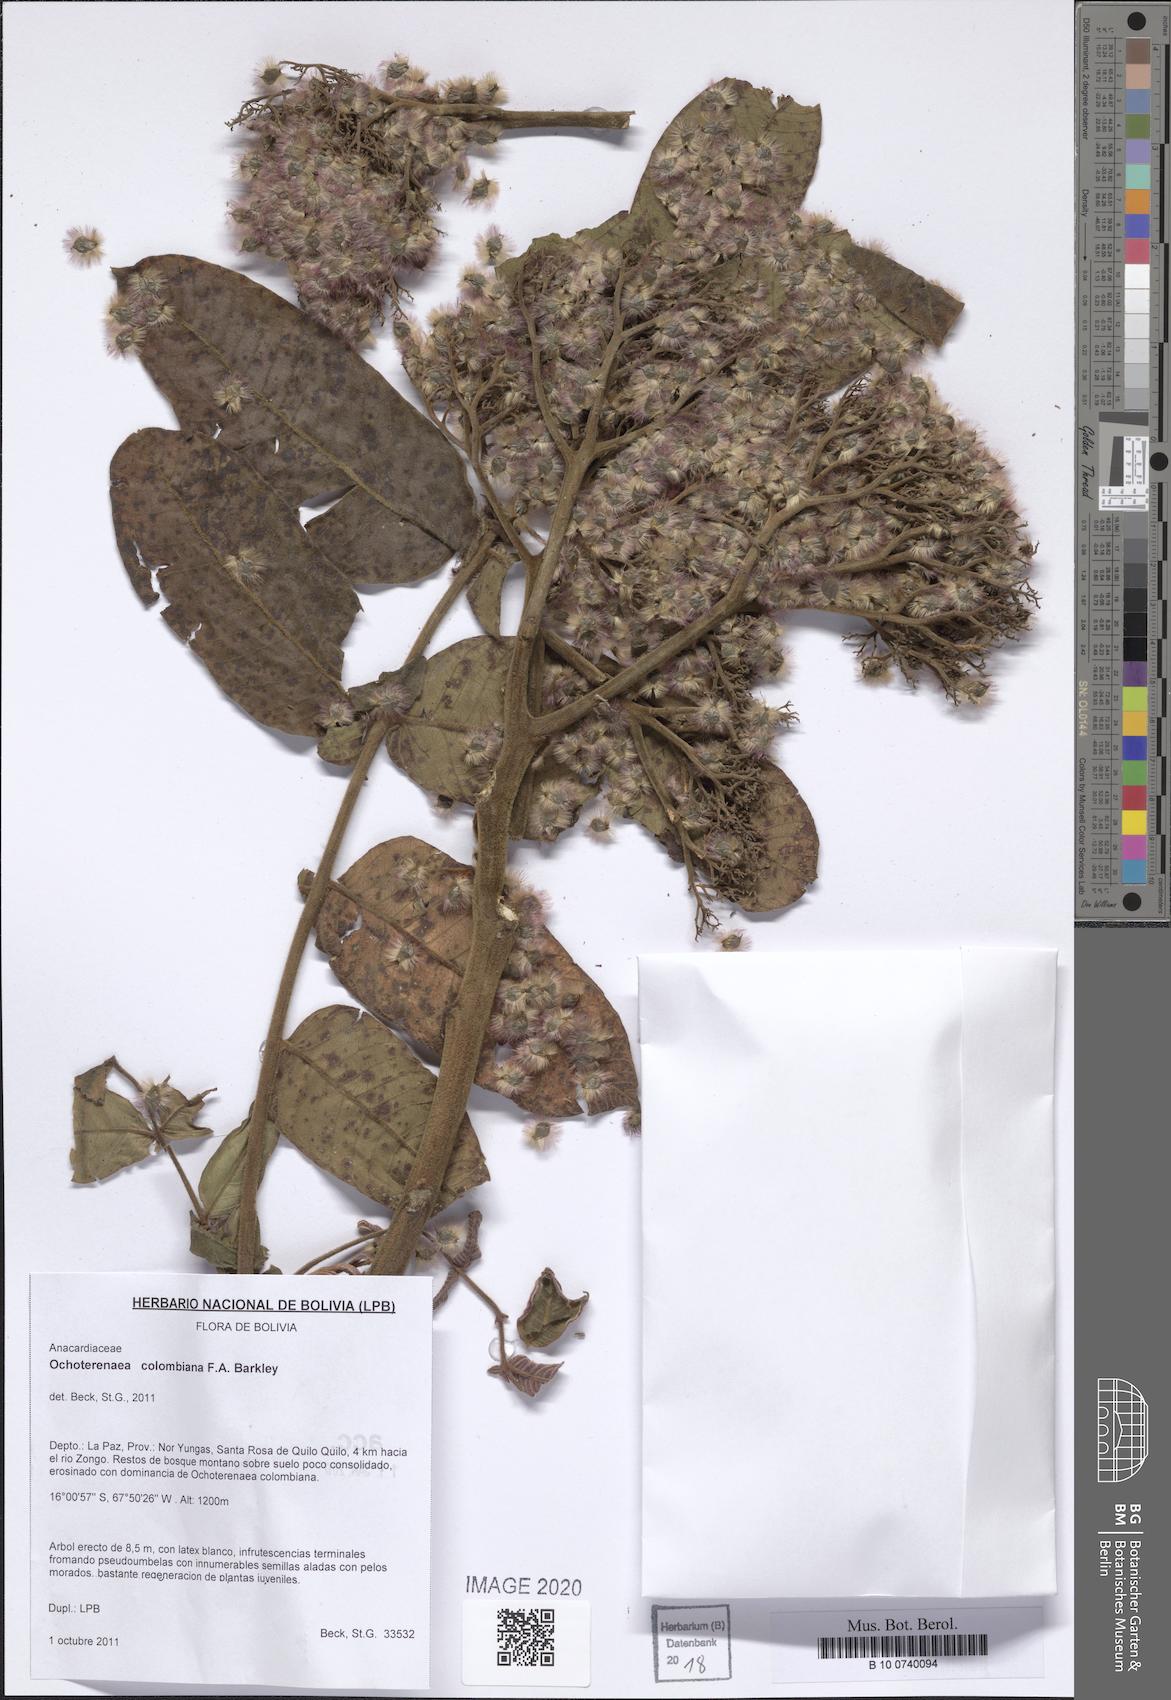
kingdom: Plantae
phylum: Tracheophyta
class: Magnoliopsida
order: Sapindales
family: Anacardiaceae
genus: Ochoterenaea
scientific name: Ochoterenaea colombiana
